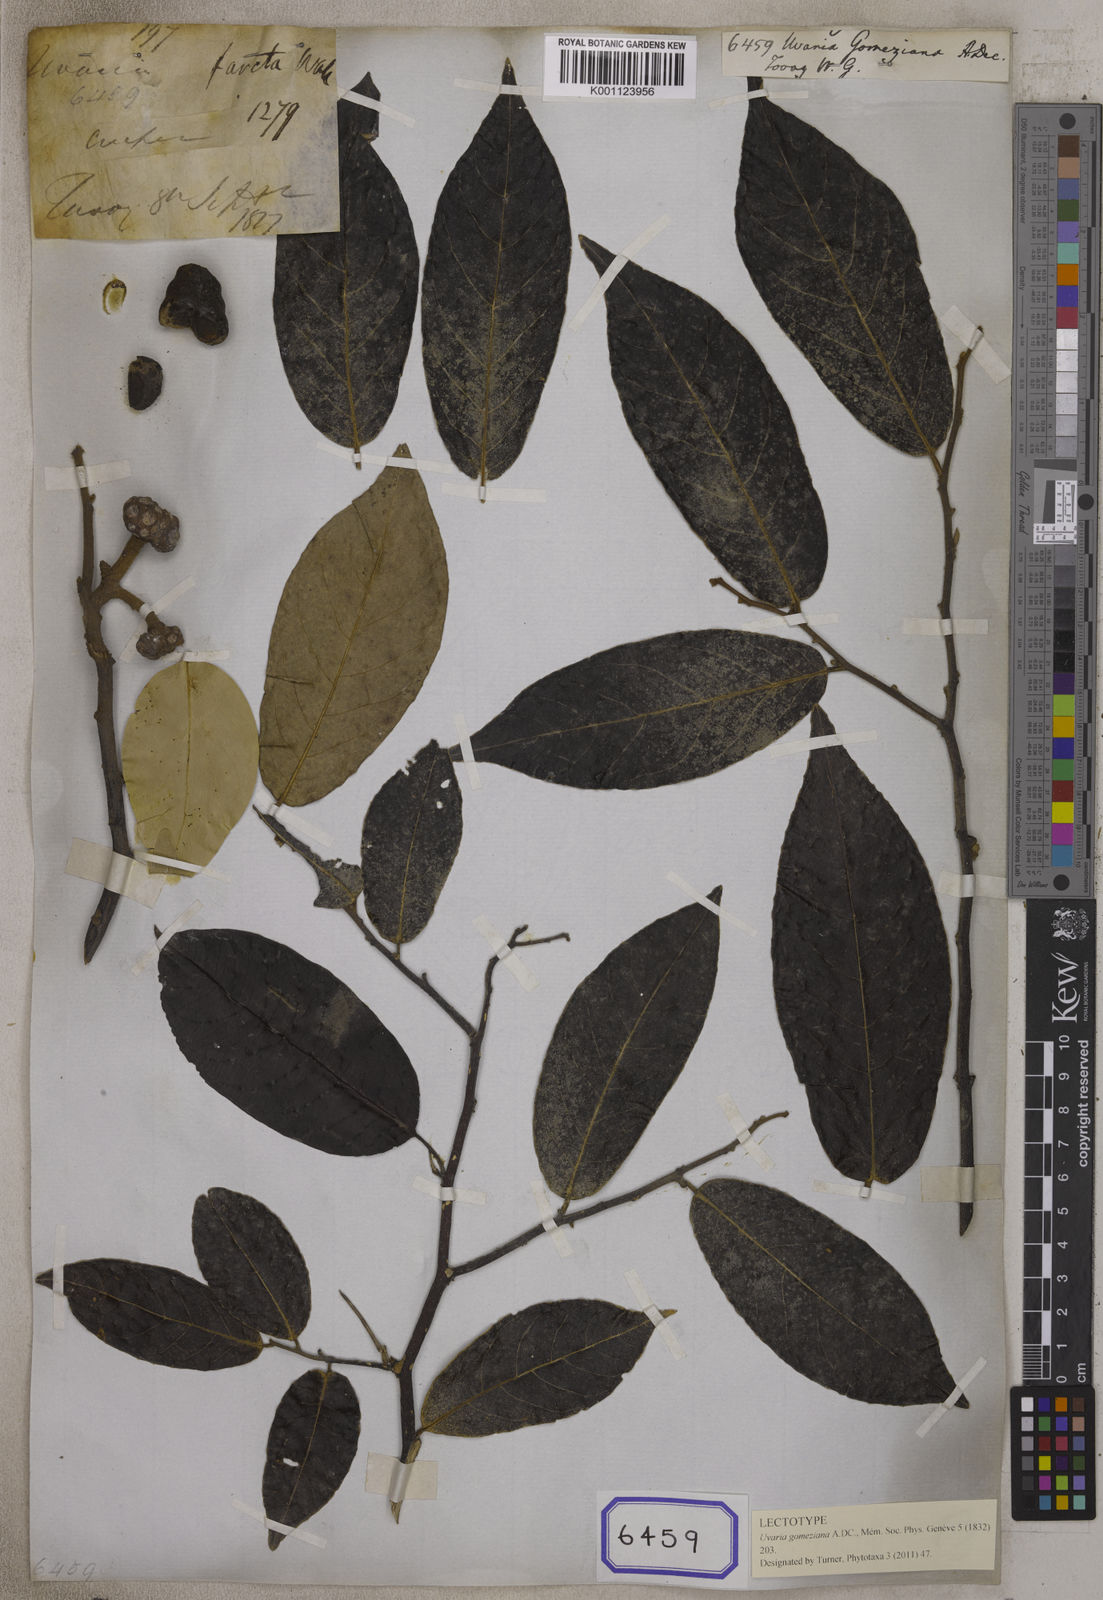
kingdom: Plantae
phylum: Tracheophyta
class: Magnoliopsida
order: Magnoliales
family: Annonaceae
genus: Uvaria
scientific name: Uvaria argentea
